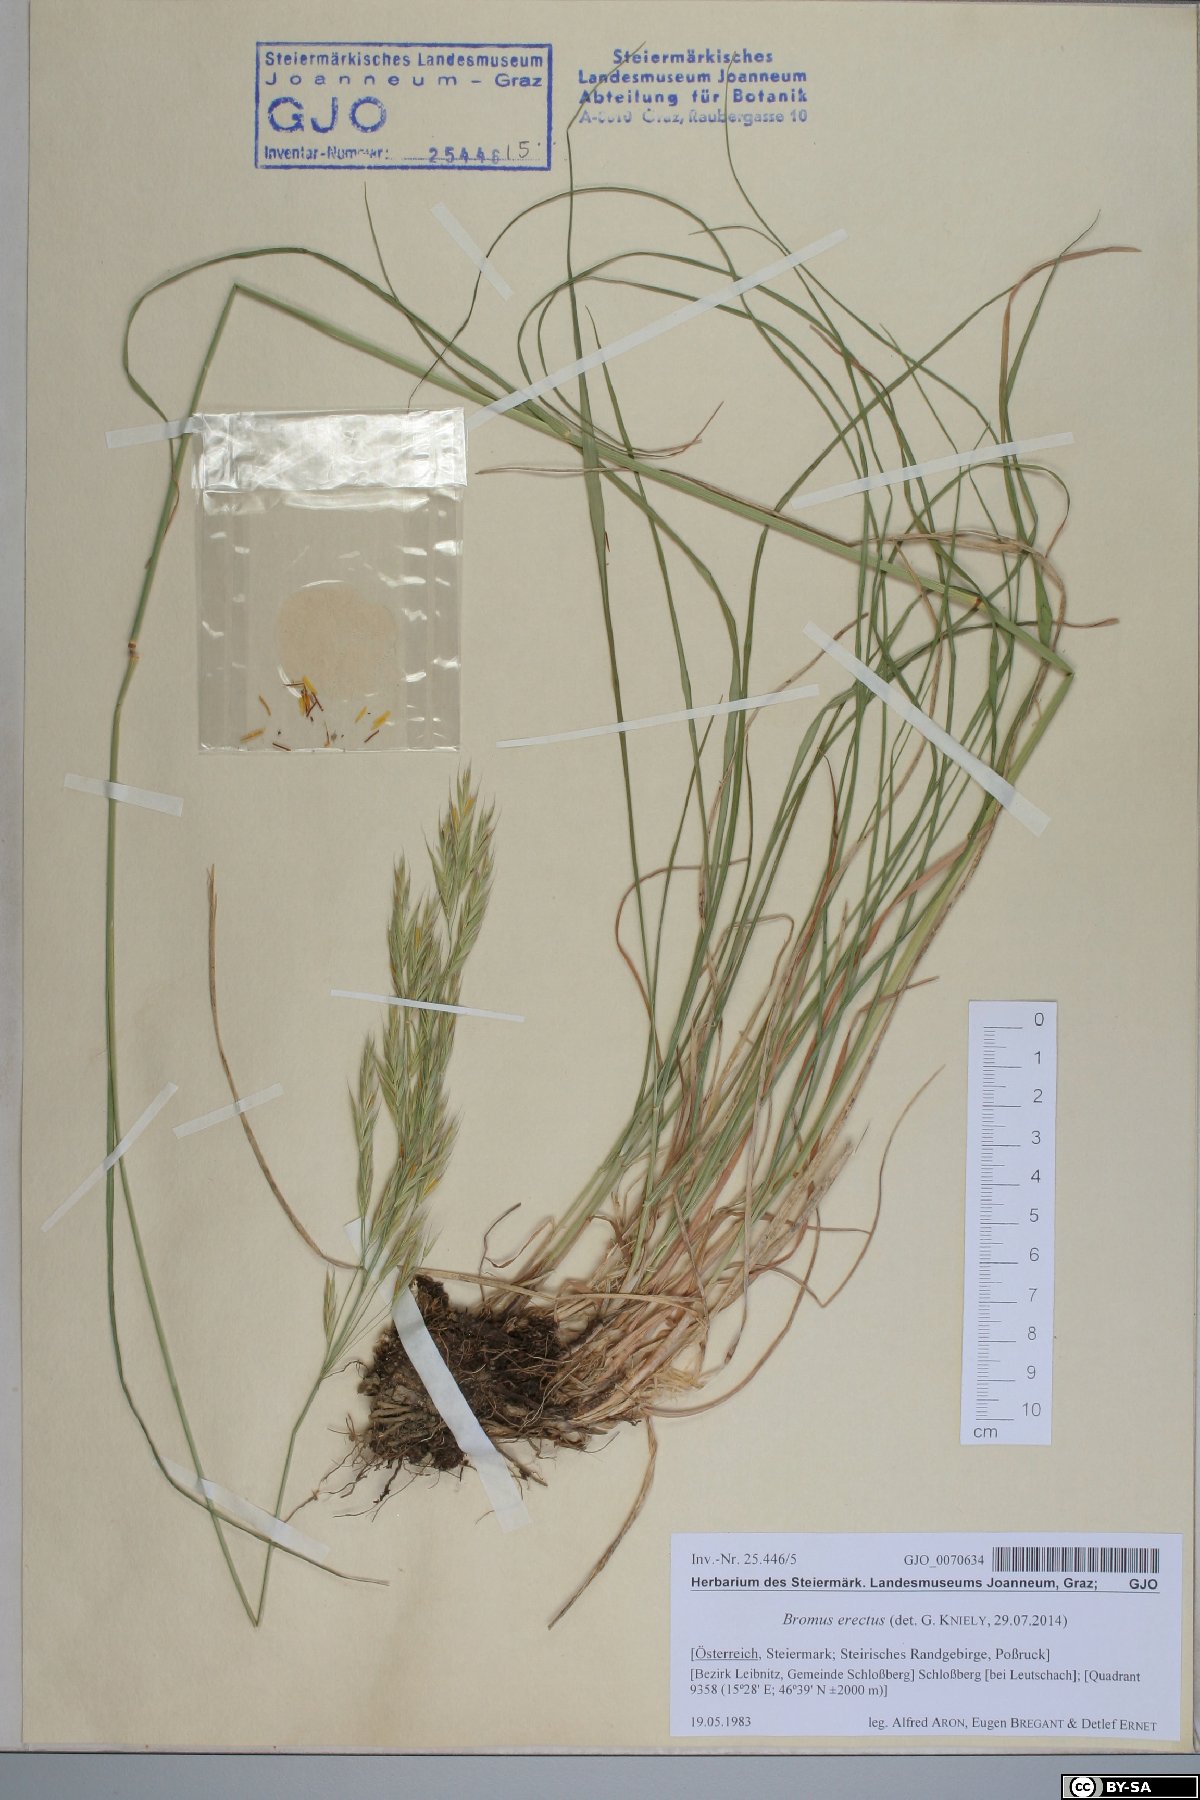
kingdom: Plantae
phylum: Tracheophyta
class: Liliopsida
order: Poales
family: Poaceae
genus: Bromus
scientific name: Bromus erectus
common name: Erect brome
